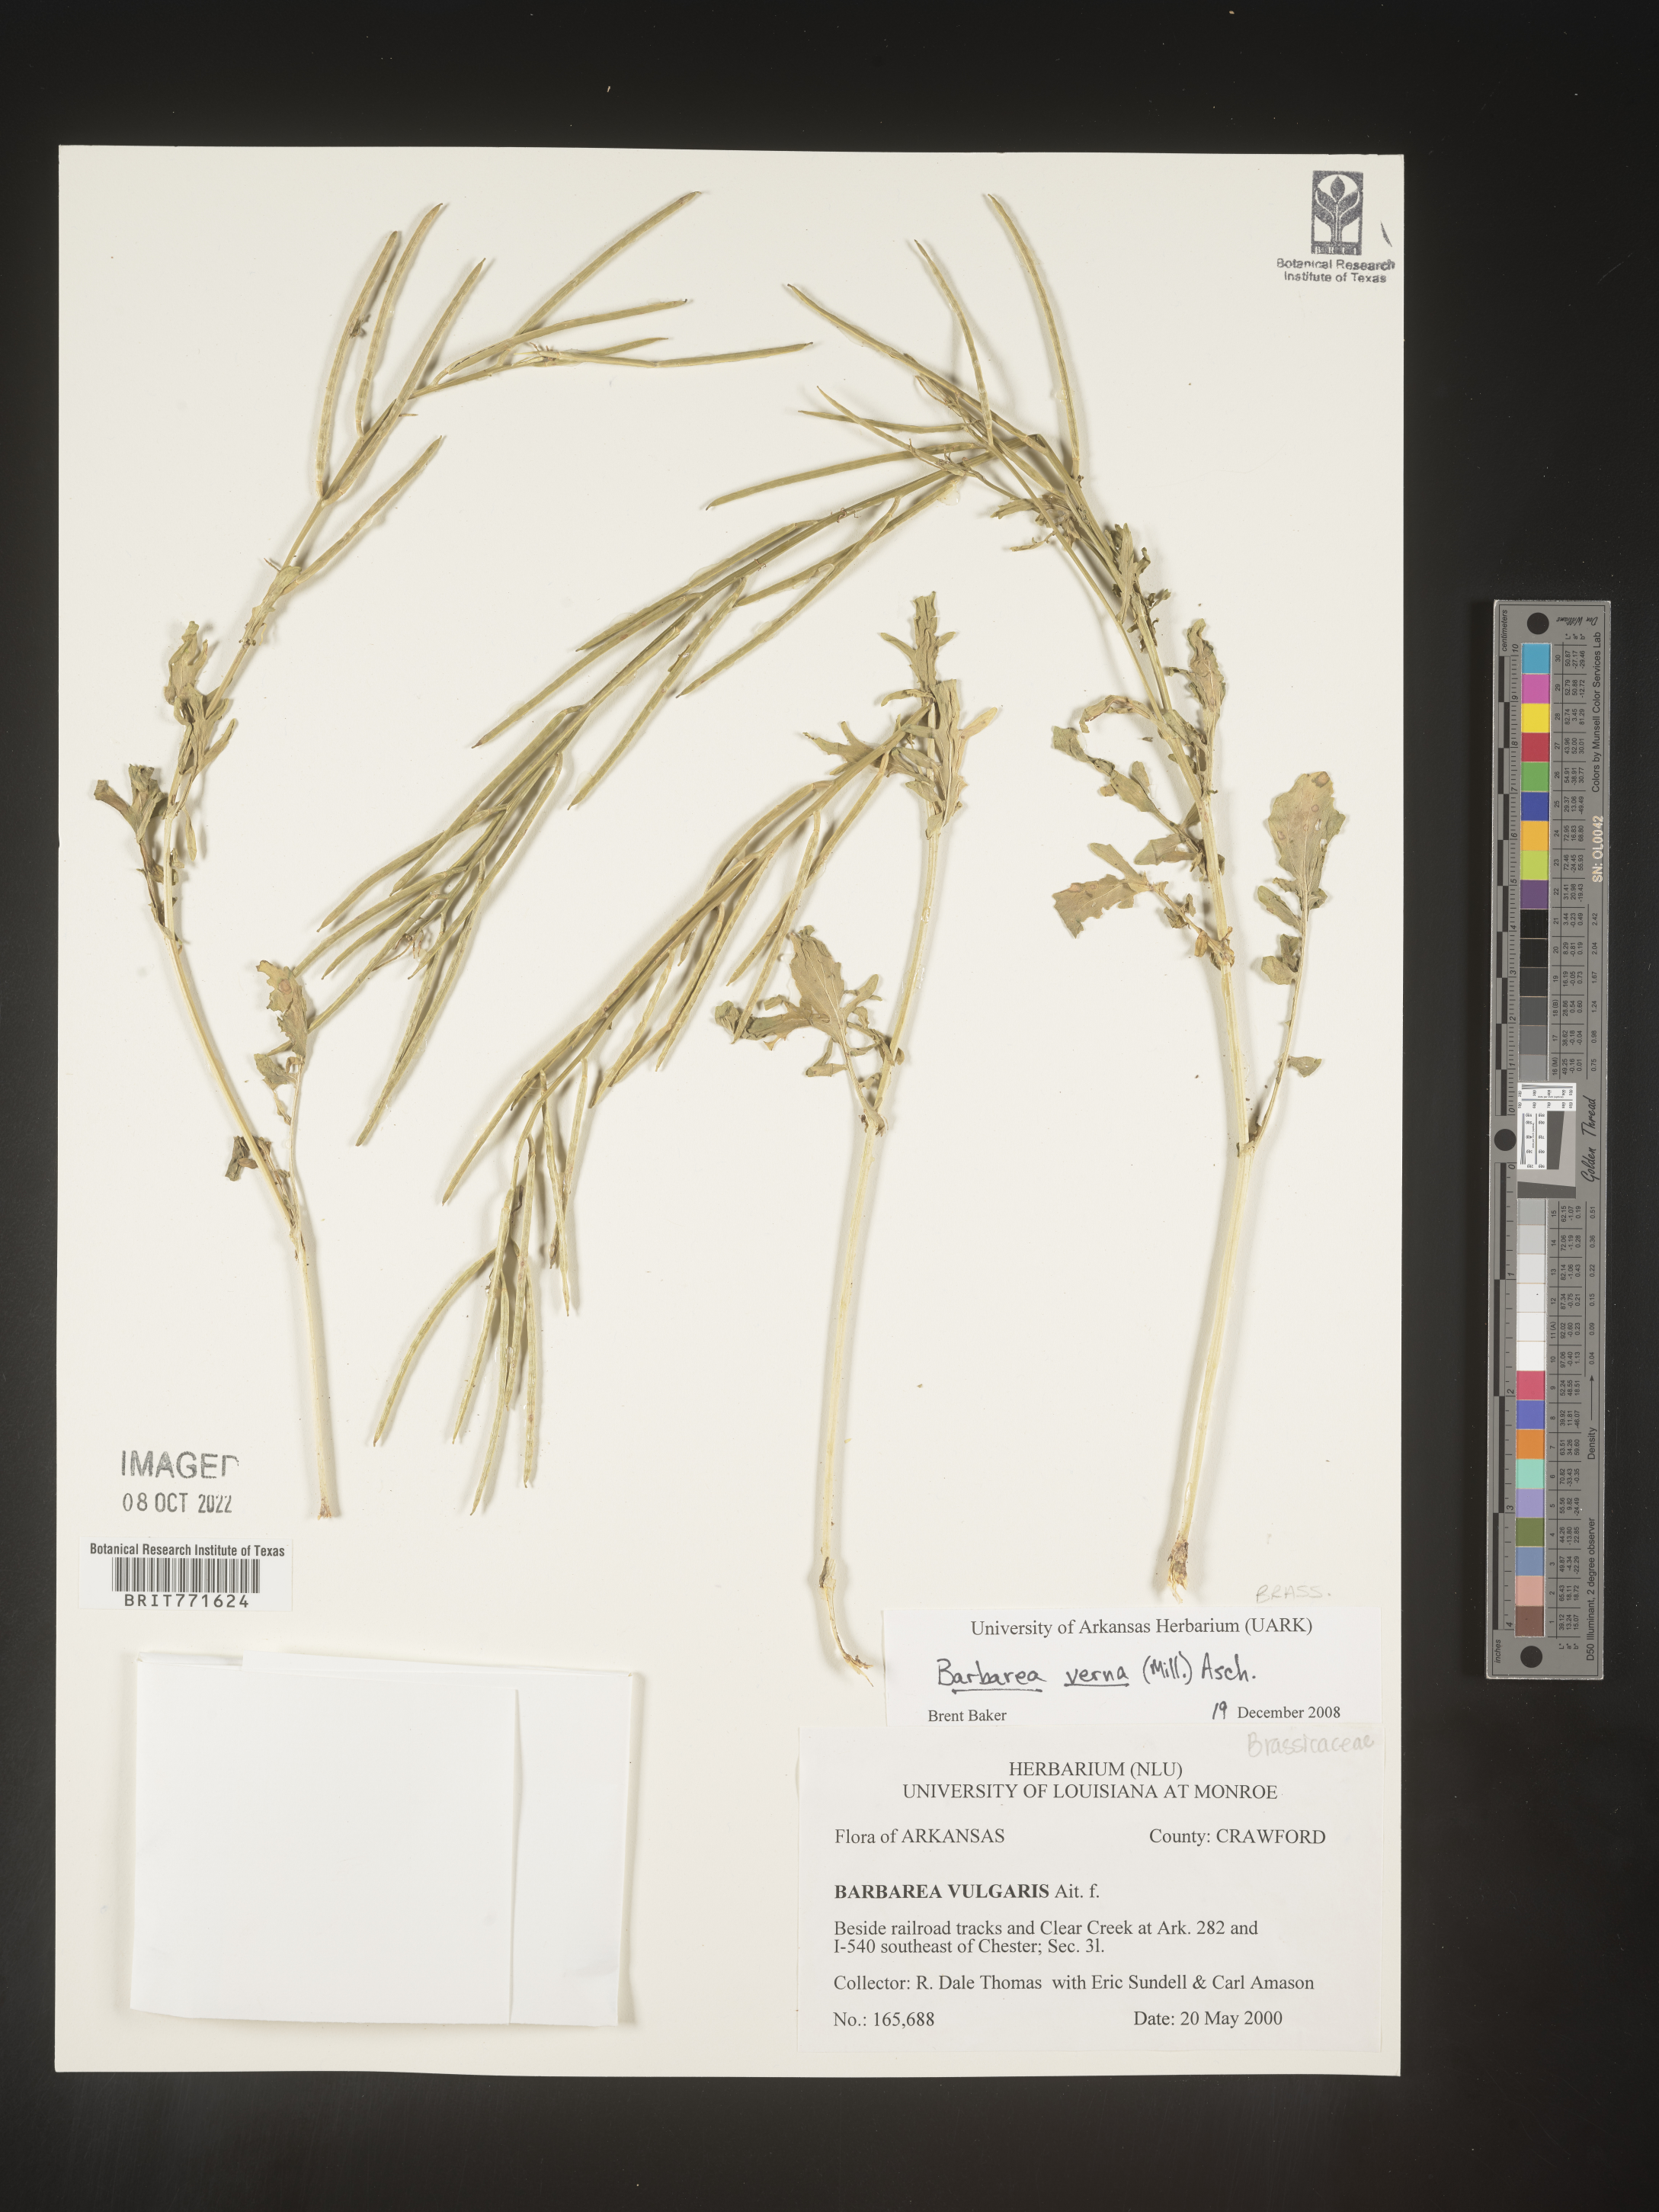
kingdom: Plantae
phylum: Tracheophyta
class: Magnoliopsida
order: Brassicales
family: Brassicaceae
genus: Barbarea
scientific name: Barbarea verna
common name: American cress
